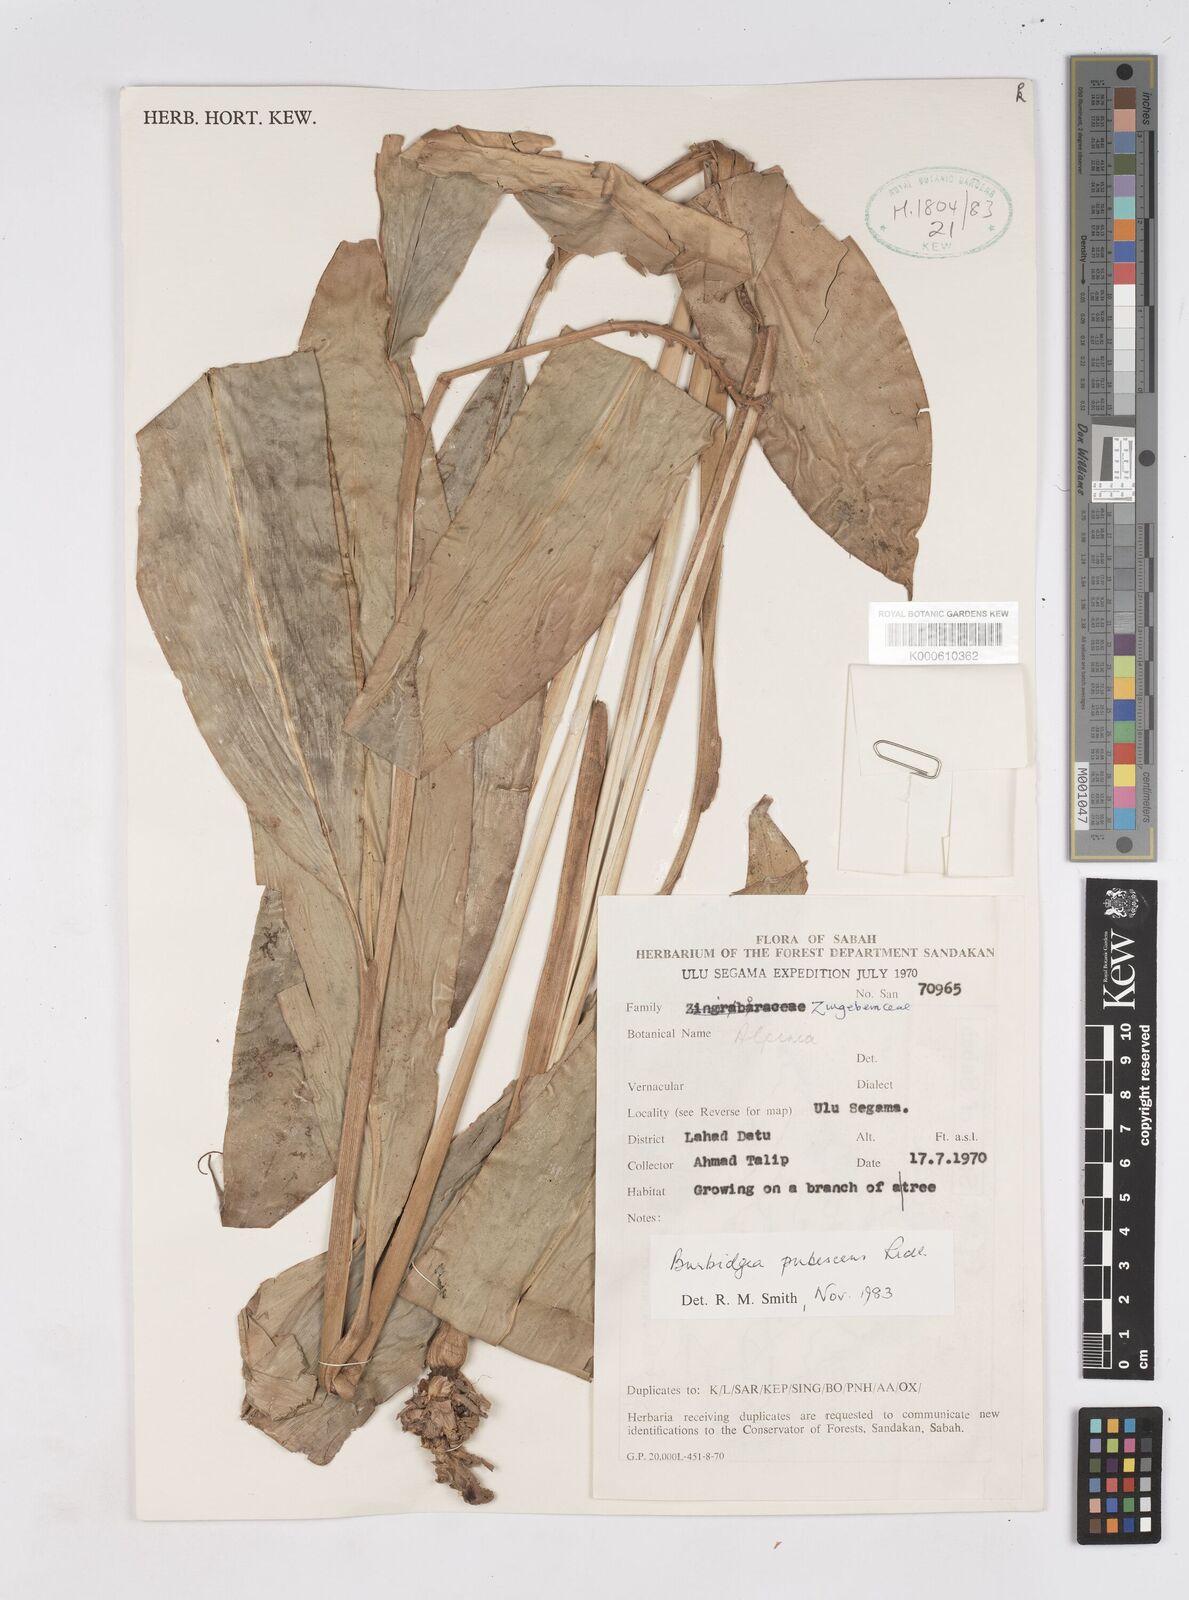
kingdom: Plantae
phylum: Tracheophyta
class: Liliopsida
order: Zingiberales
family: Zingiberaceae
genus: Burbidgea
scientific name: Burbidgea schizocheila
